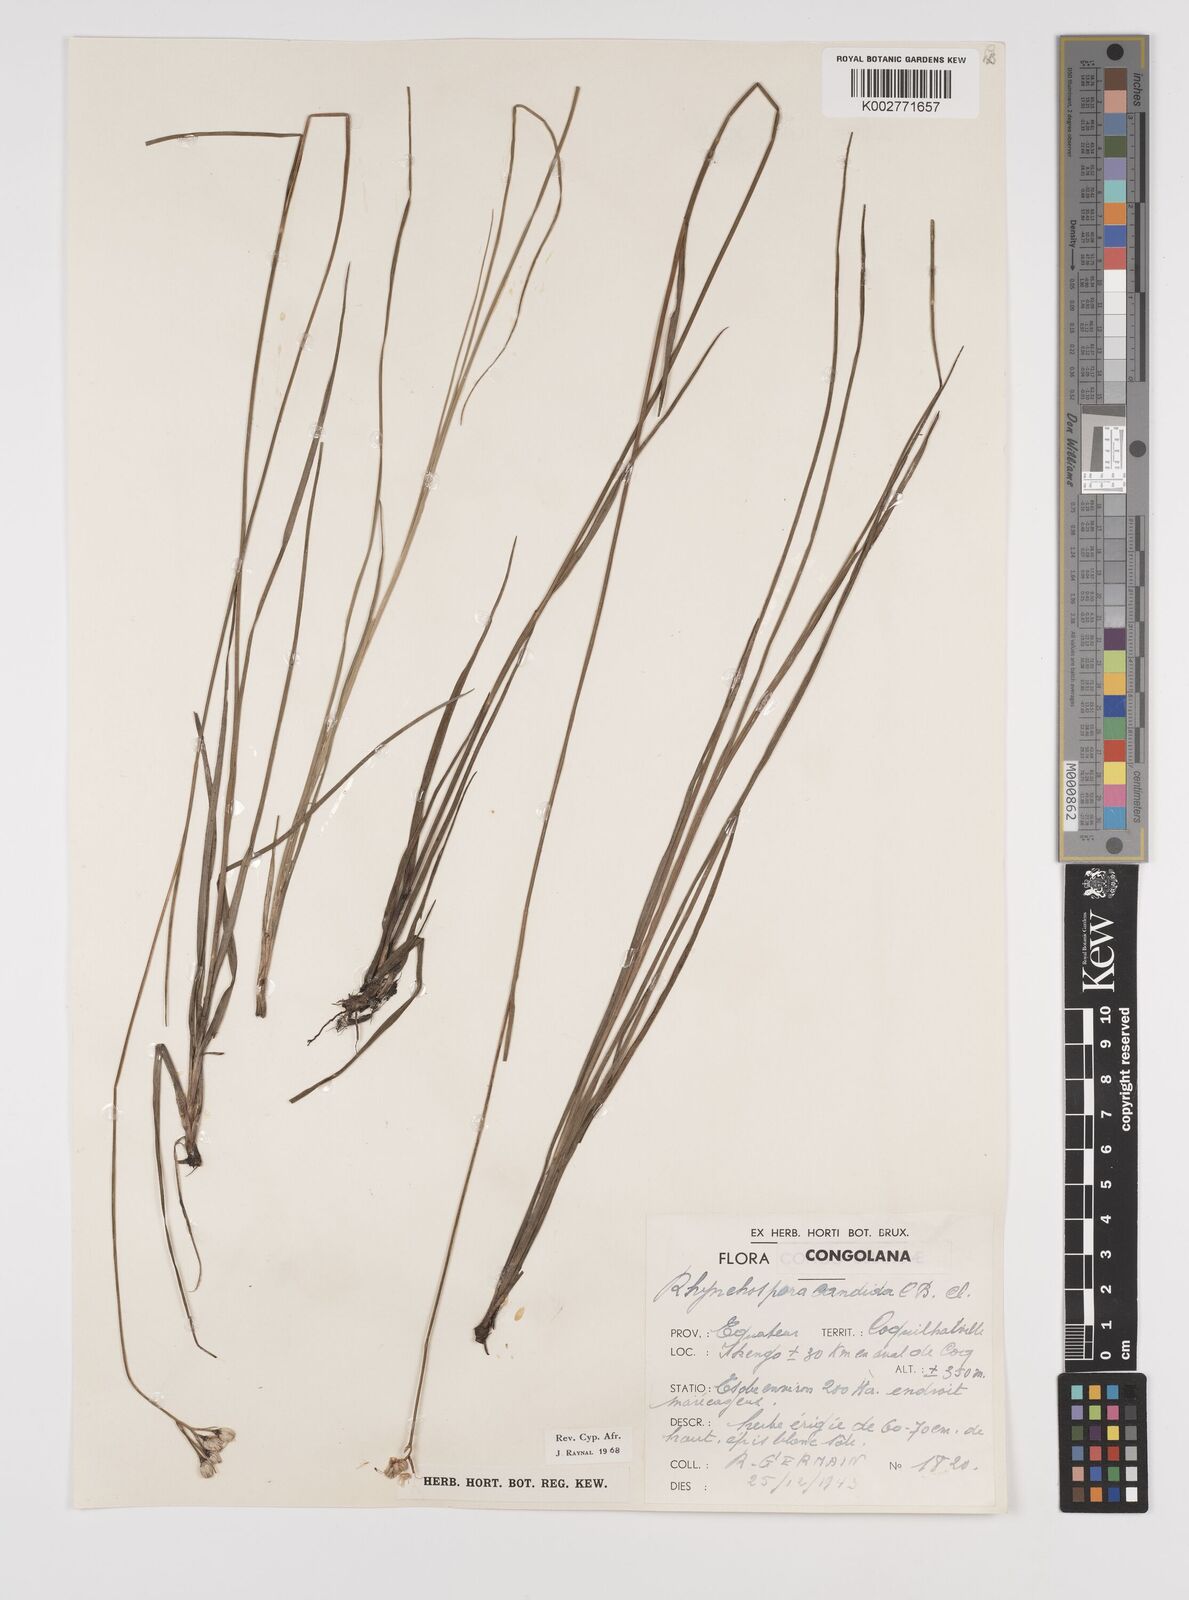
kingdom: Plantae
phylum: Tracheophyta
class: Liliopsida
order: Poales
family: Cyperaceae
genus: Rhynchospora
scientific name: Rhynchospora candida
